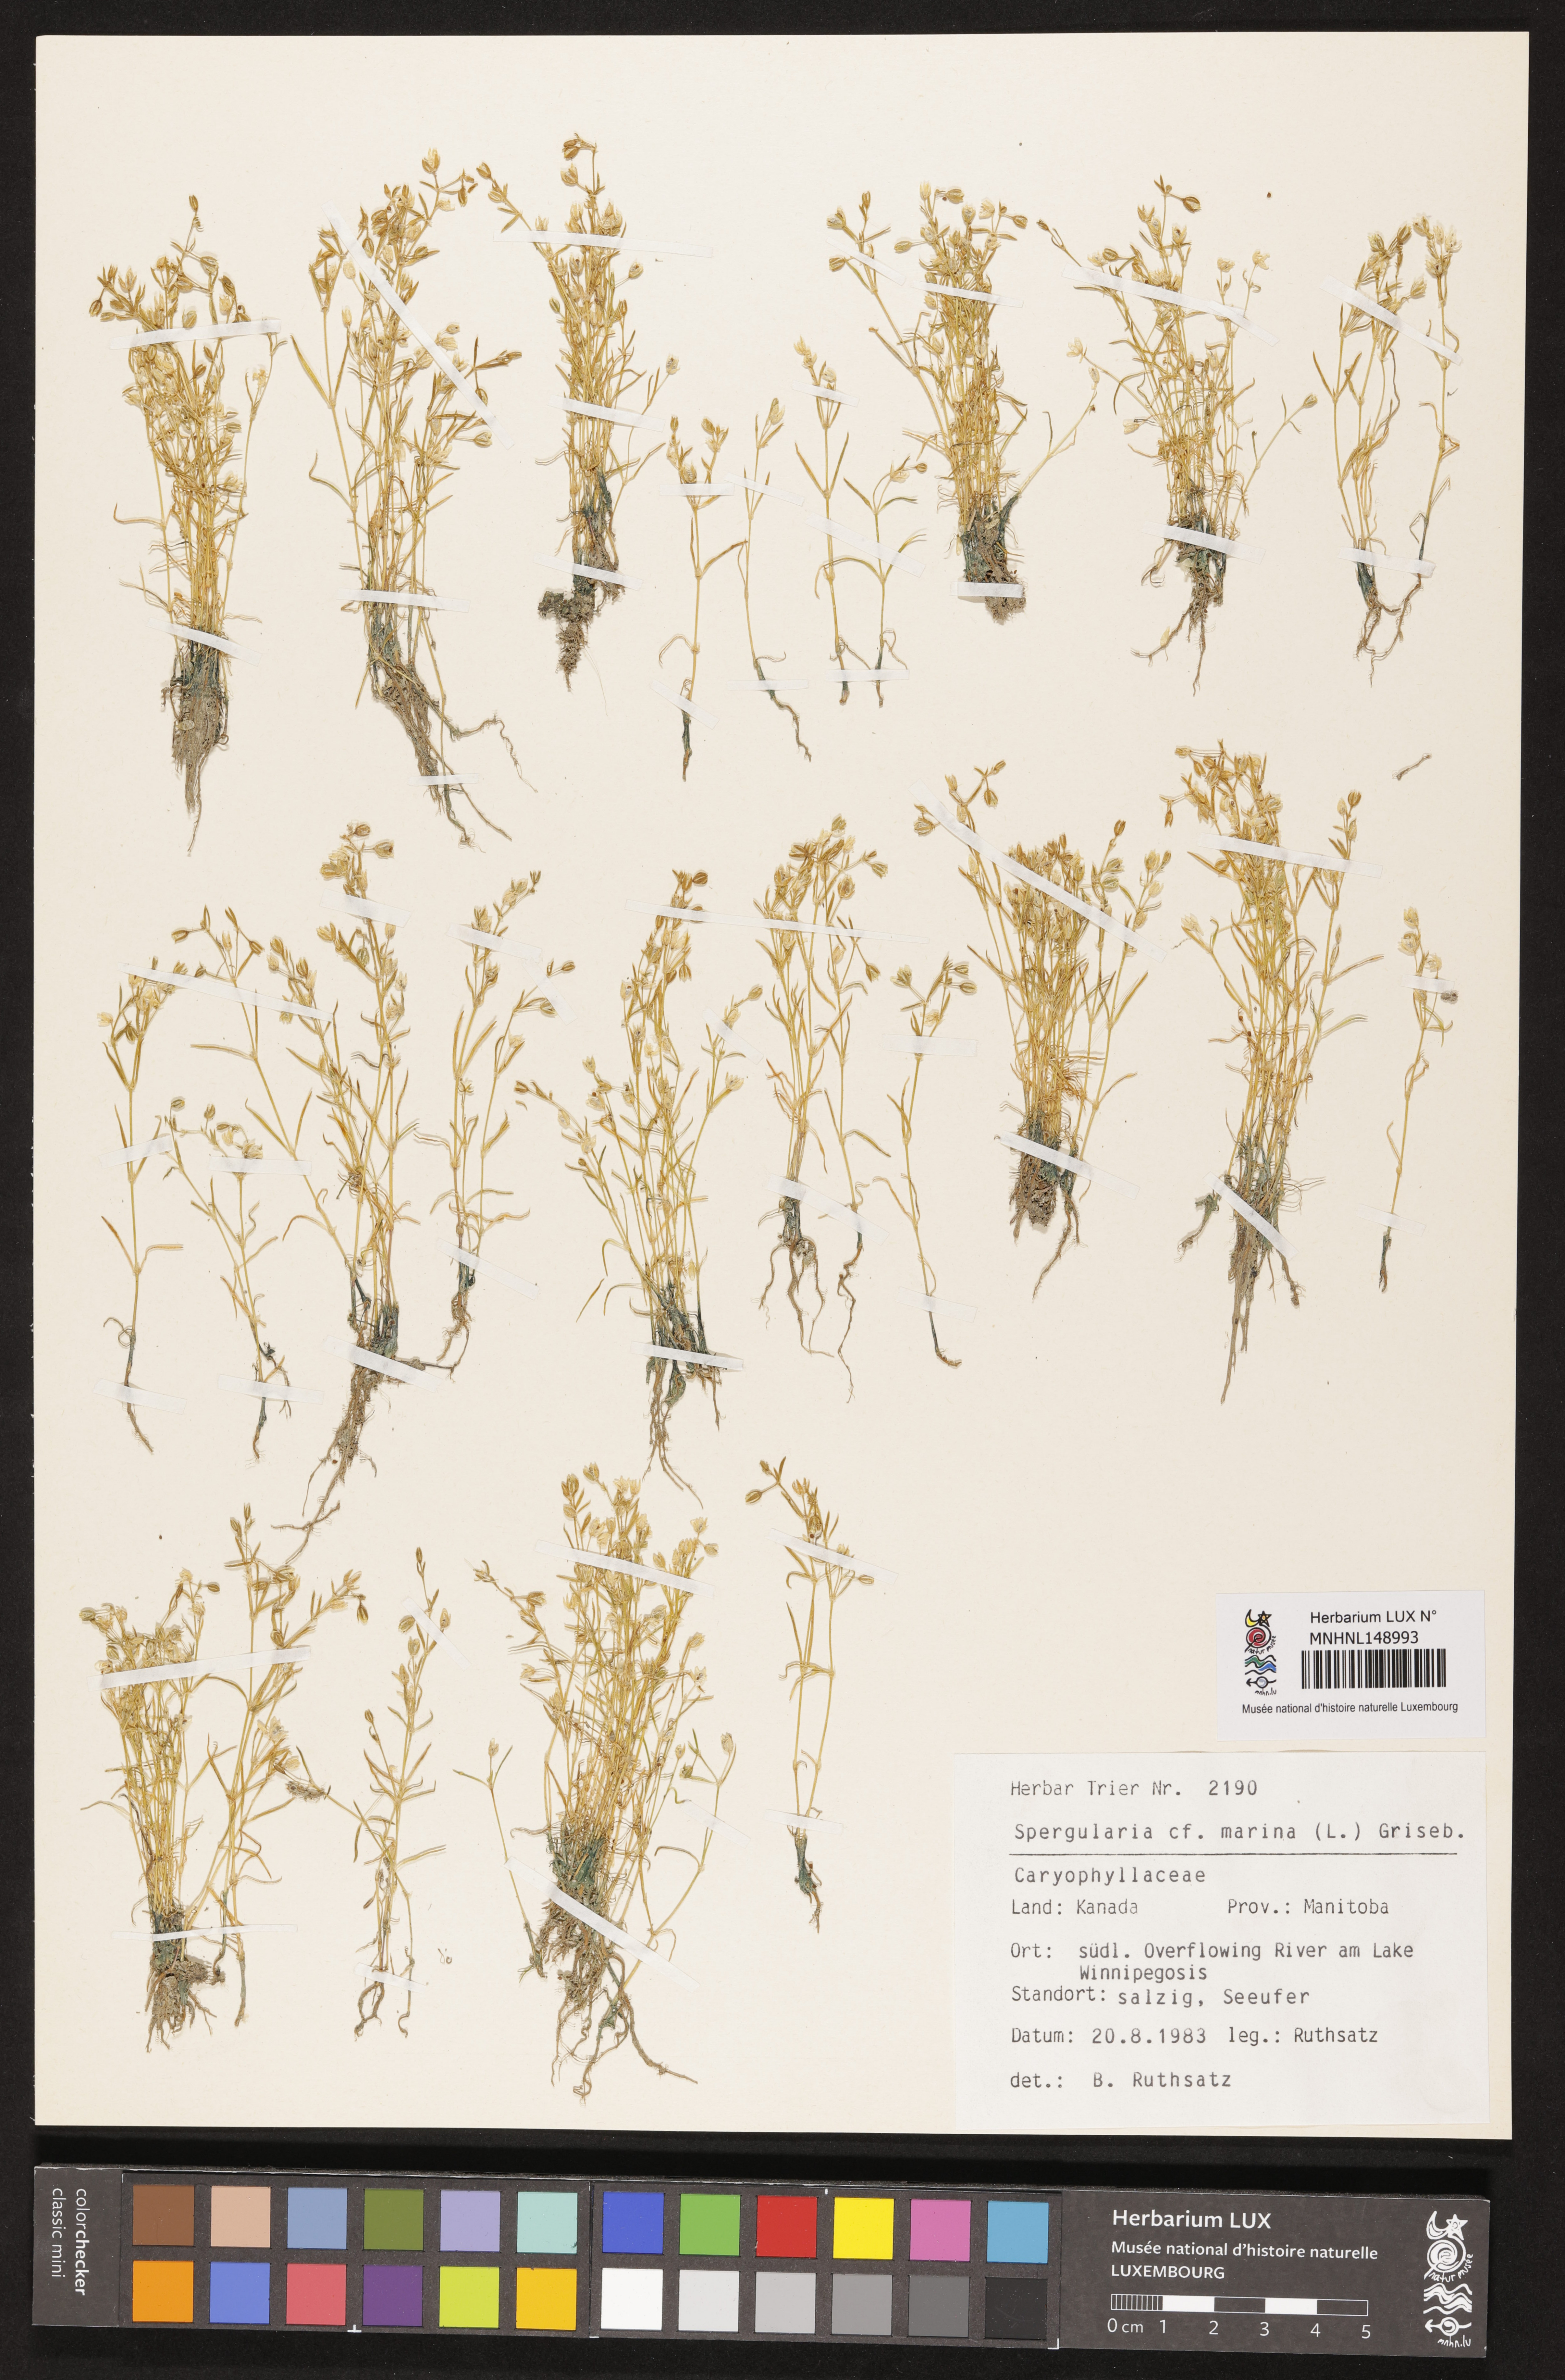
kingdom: Plantae
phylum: Tracheophyta
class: Magnoliopsida
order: Caryophyllales
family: Caryophyllaceae
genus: Spergularia
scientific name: Spergularia marina
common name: Lesser sea-spurrey
